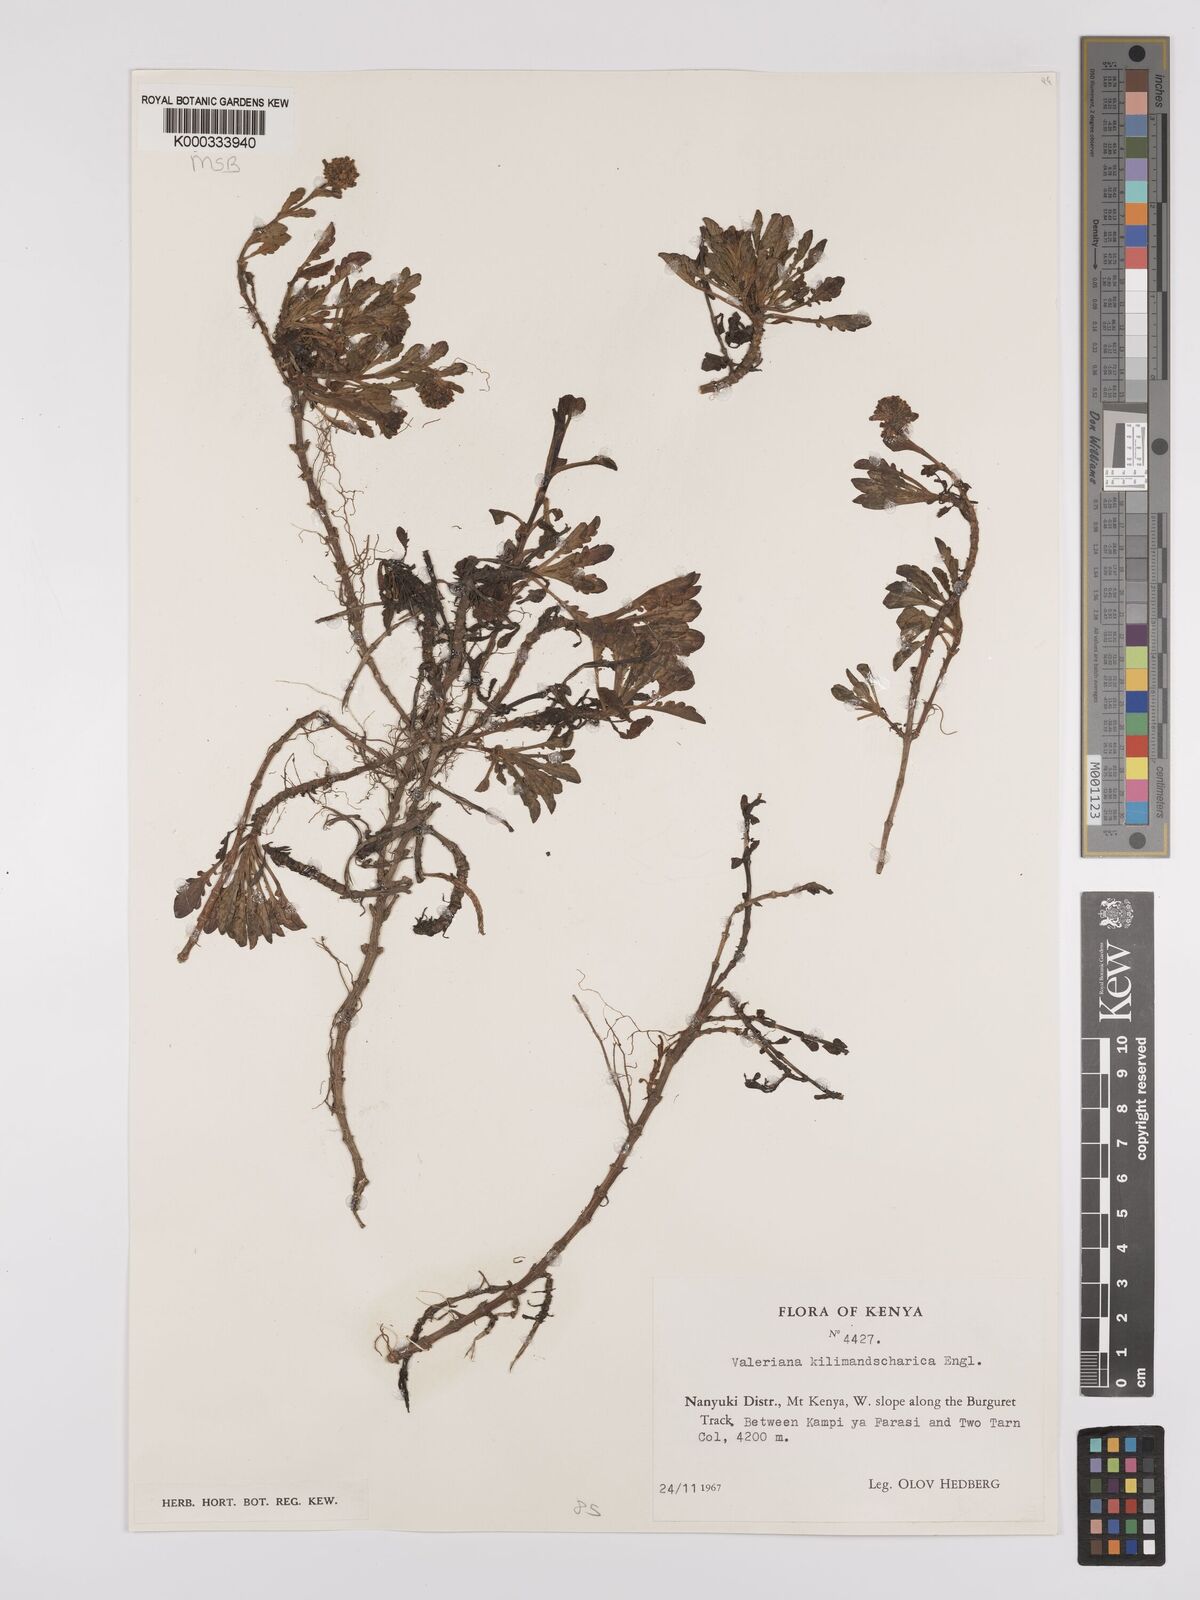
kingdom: Plantae
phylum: Tracheophyta
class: Magnoliopsida
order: Dipsacales
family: Caprifoliaceae
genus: Valeriana
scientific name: Valeriana kilimandscharica
